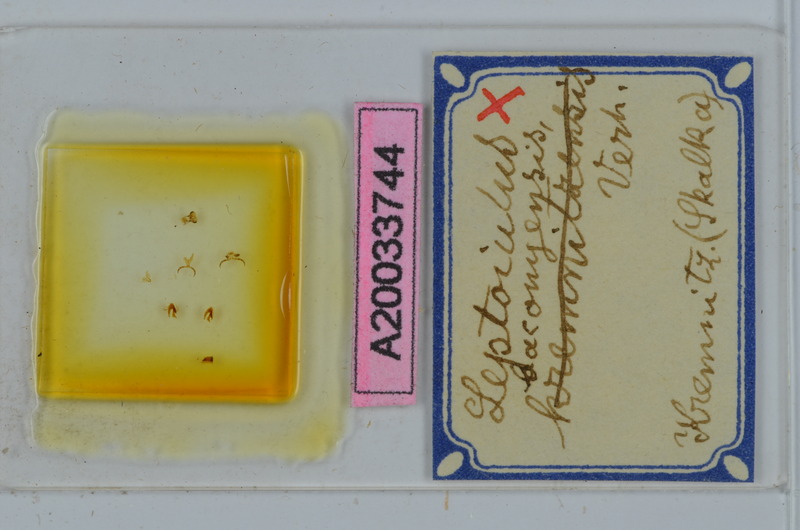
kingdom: Animalia
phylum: Arthropoda
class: Diplopoda
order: Julida
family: Julidae
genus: Leptoiulus
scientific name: Leptoiulus baconyensis
